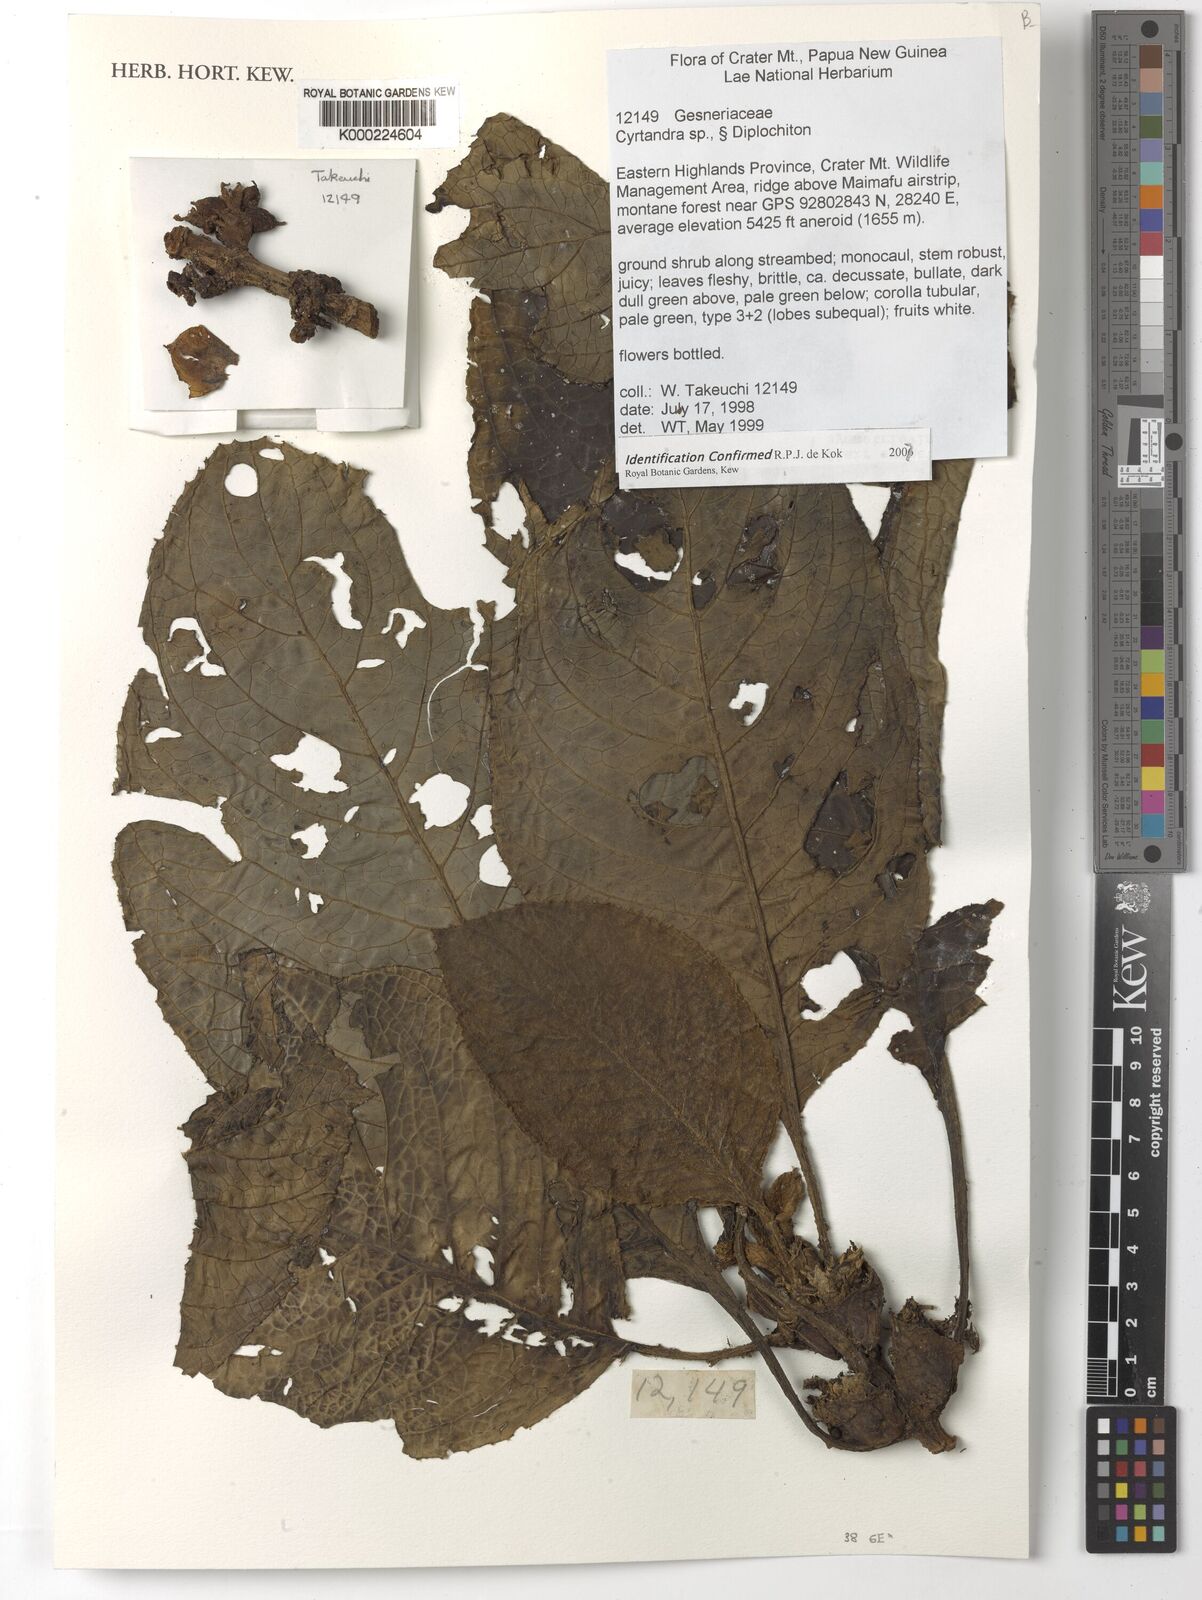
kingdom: Plantae
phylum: Tracheophyta
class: Magnoliopsida
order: Lamiales
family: Gesneriaceae
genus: Cyrtandra
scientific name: Cyrtandra
